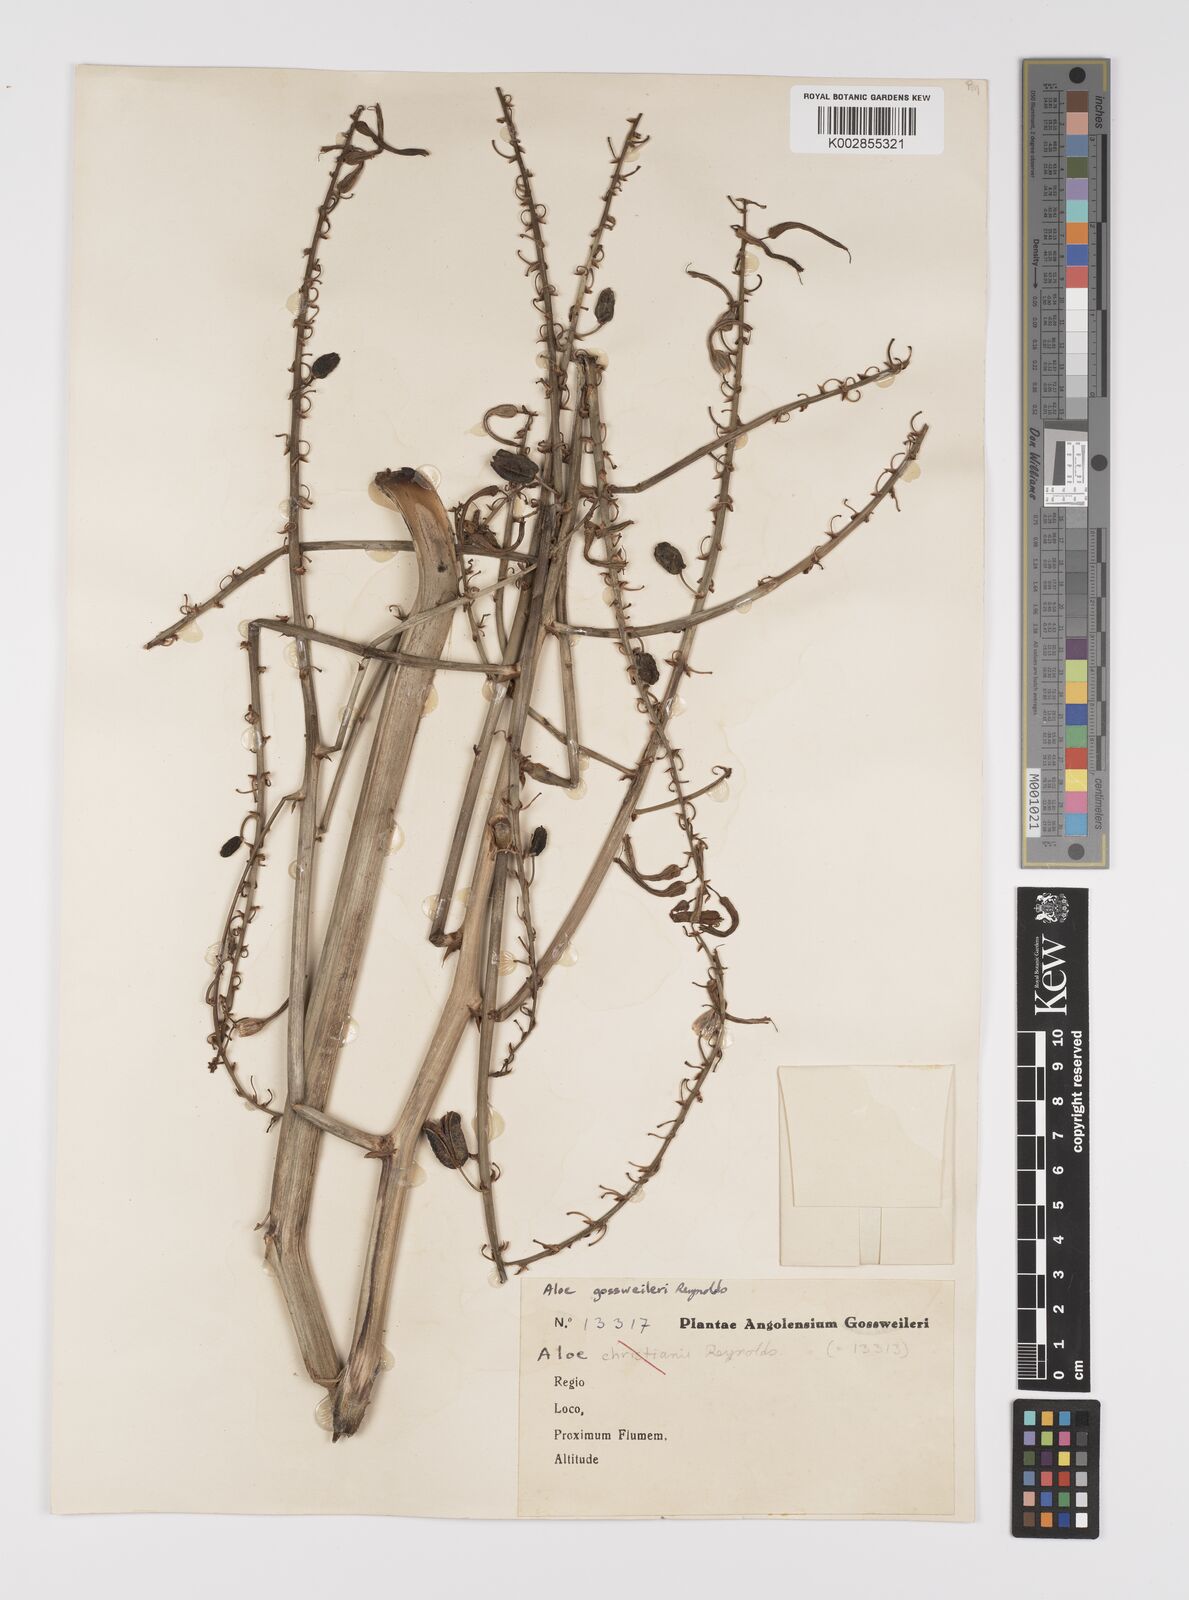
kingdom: Plantae
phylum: Tracheophyta
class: Liliopsida
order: Asparagales
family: Asphodelaceae
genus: Aloe
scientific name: Aloe gossweileri
